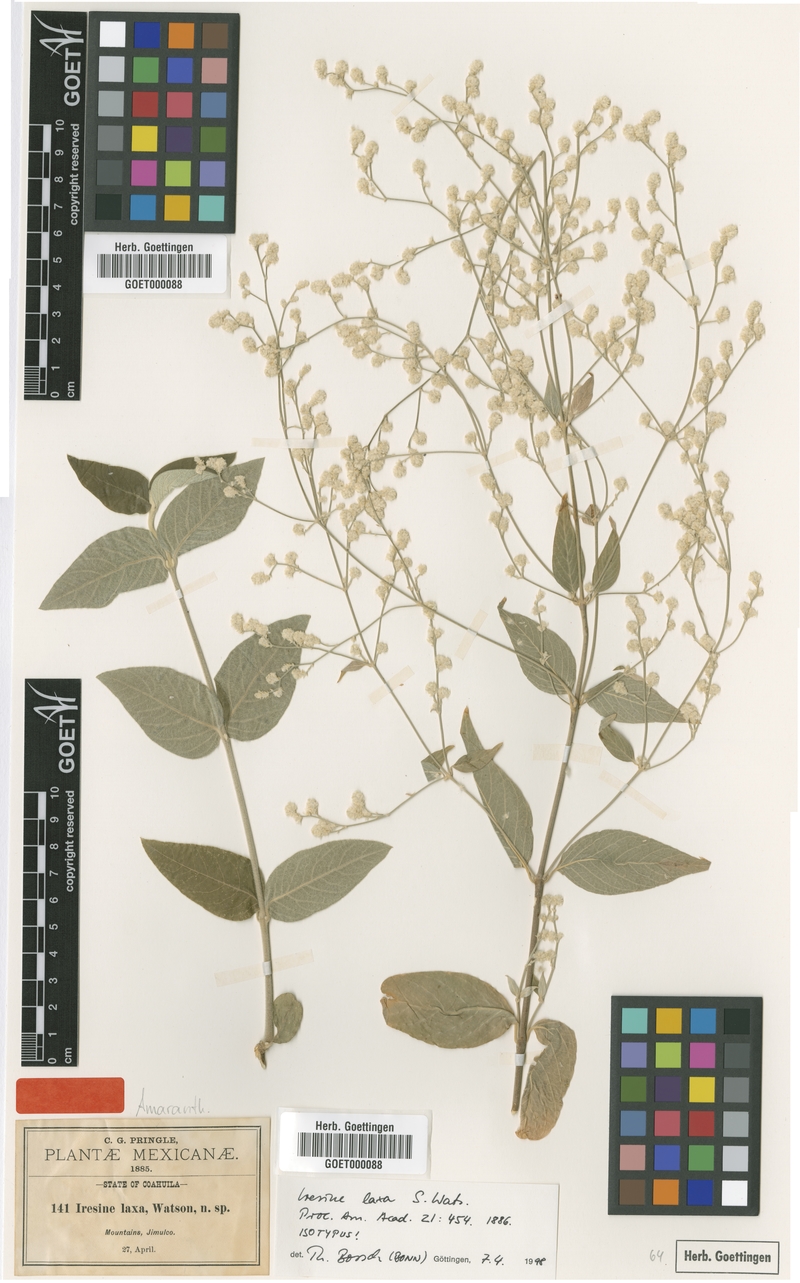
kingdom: Plantae
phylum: Tracheophyta
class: Magnoliopsida
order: Caryophyllales
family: Amaranthaceae
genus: Iresine
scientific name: Iresine latifolia
